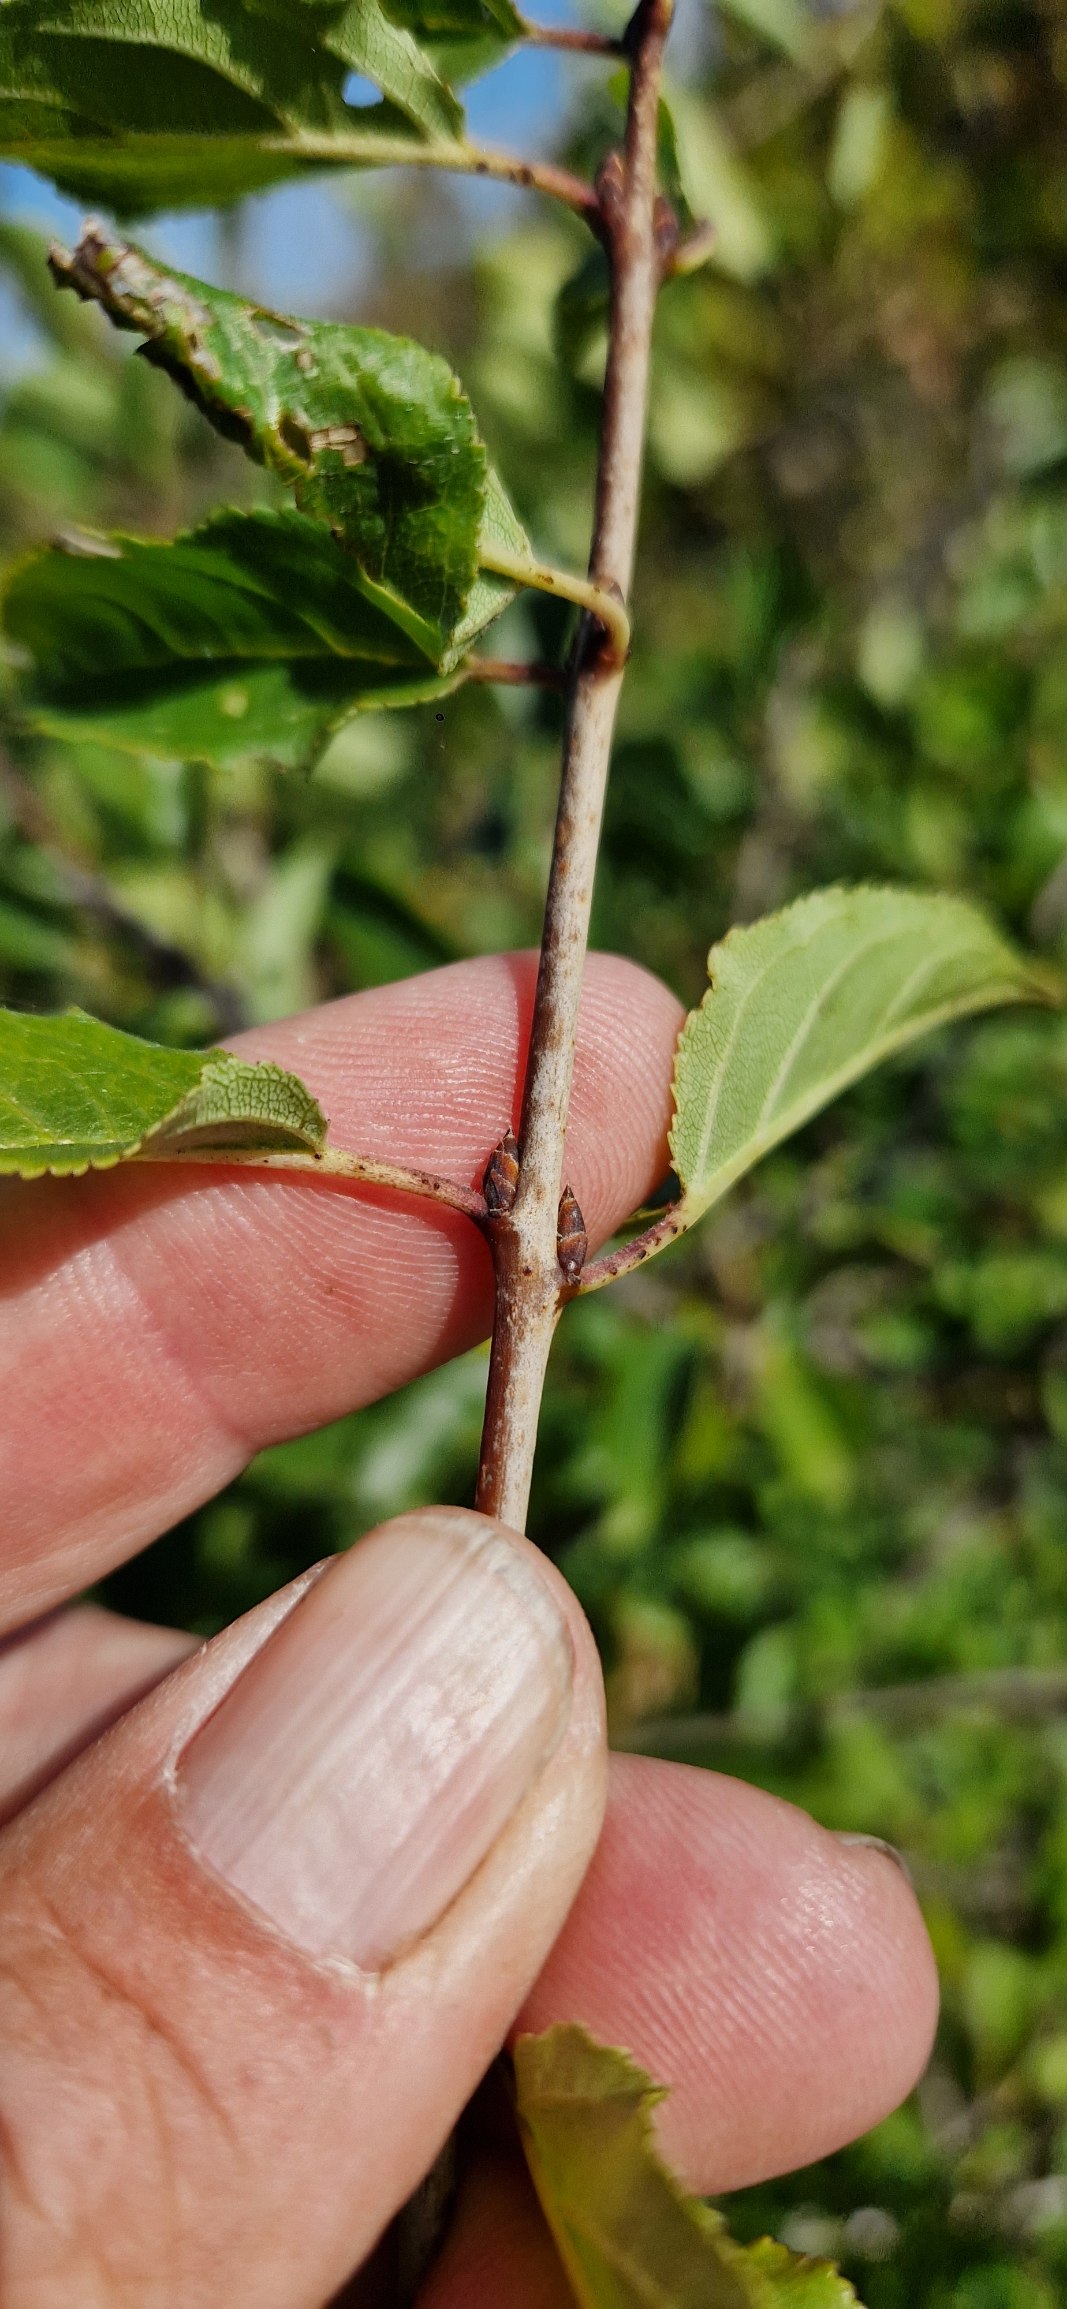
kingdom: Plantae
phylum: Tracheophyta
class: Magnoliopsida
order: Rosales
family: Rhamnaceae
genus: Rhamnus
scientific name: Rhamnus cathartica
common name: Vrietorn
